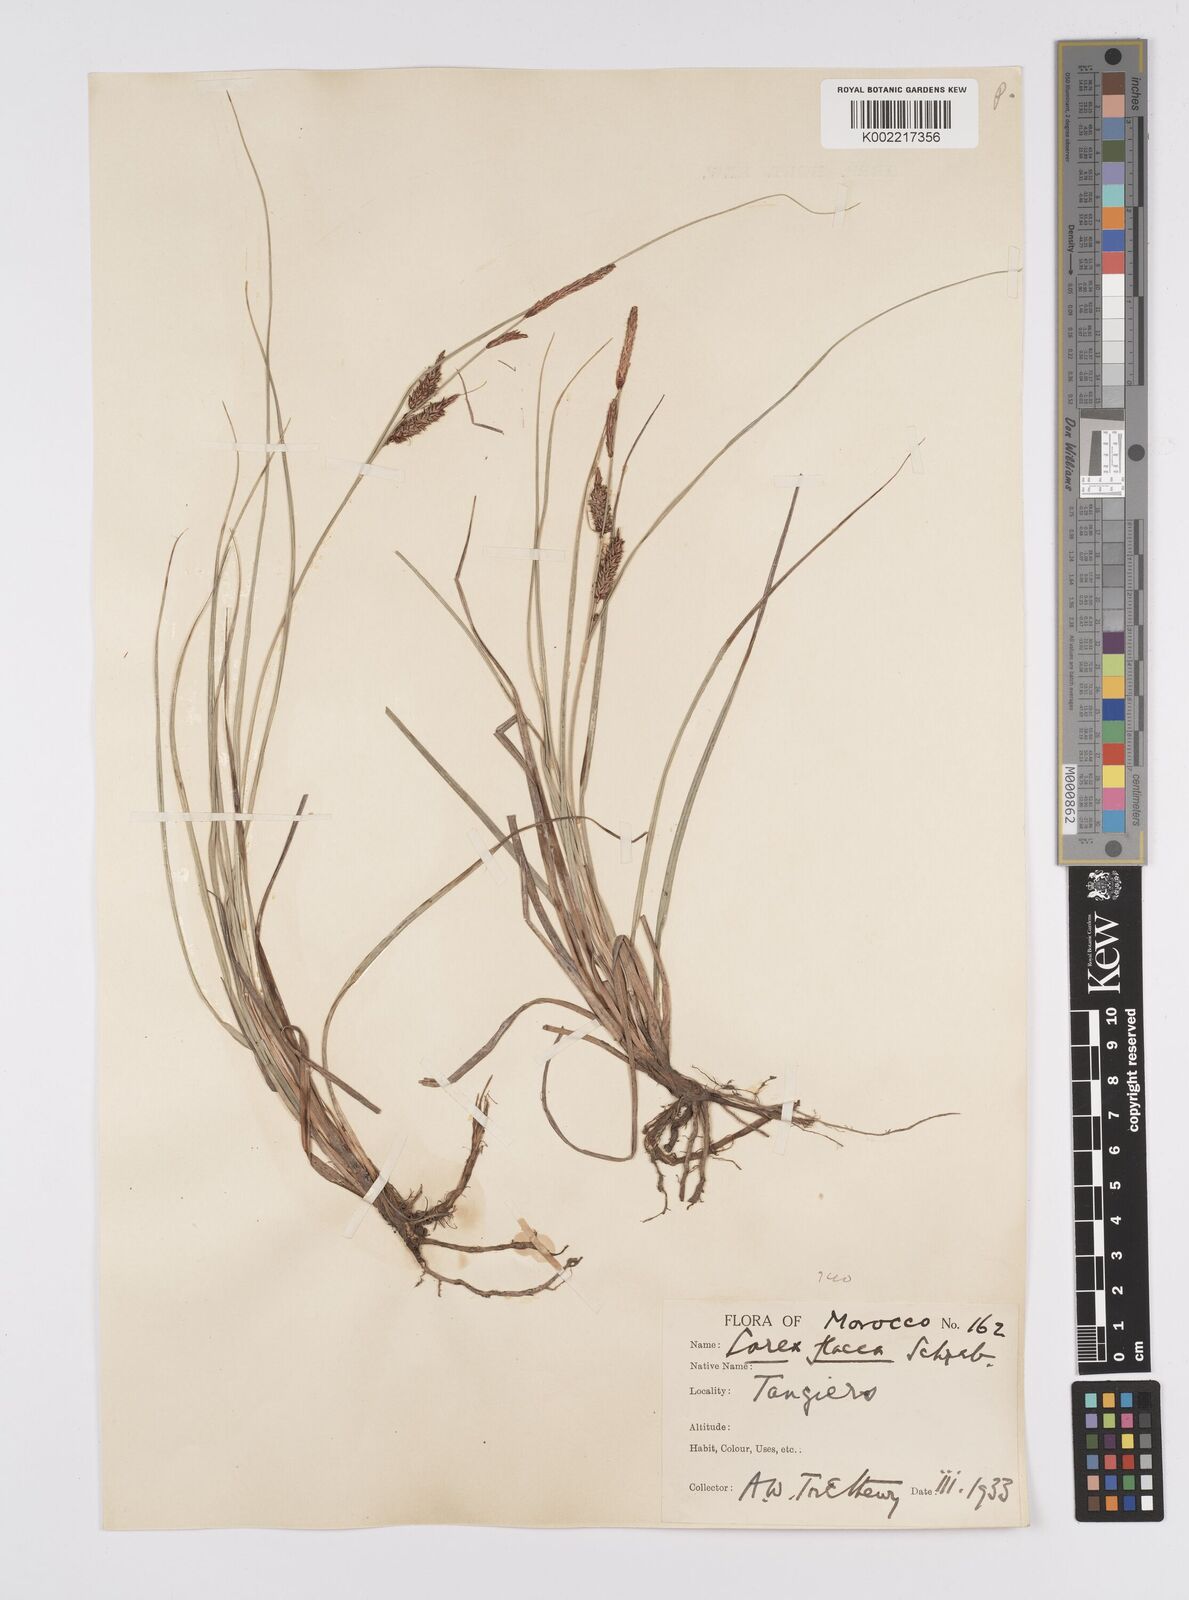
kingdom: Plantae
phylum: Tracheophyta
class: Liliopsida
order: Poales
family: Cyperaceae
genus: Carex
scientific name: Carex flacca
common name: Glaucous sedge
